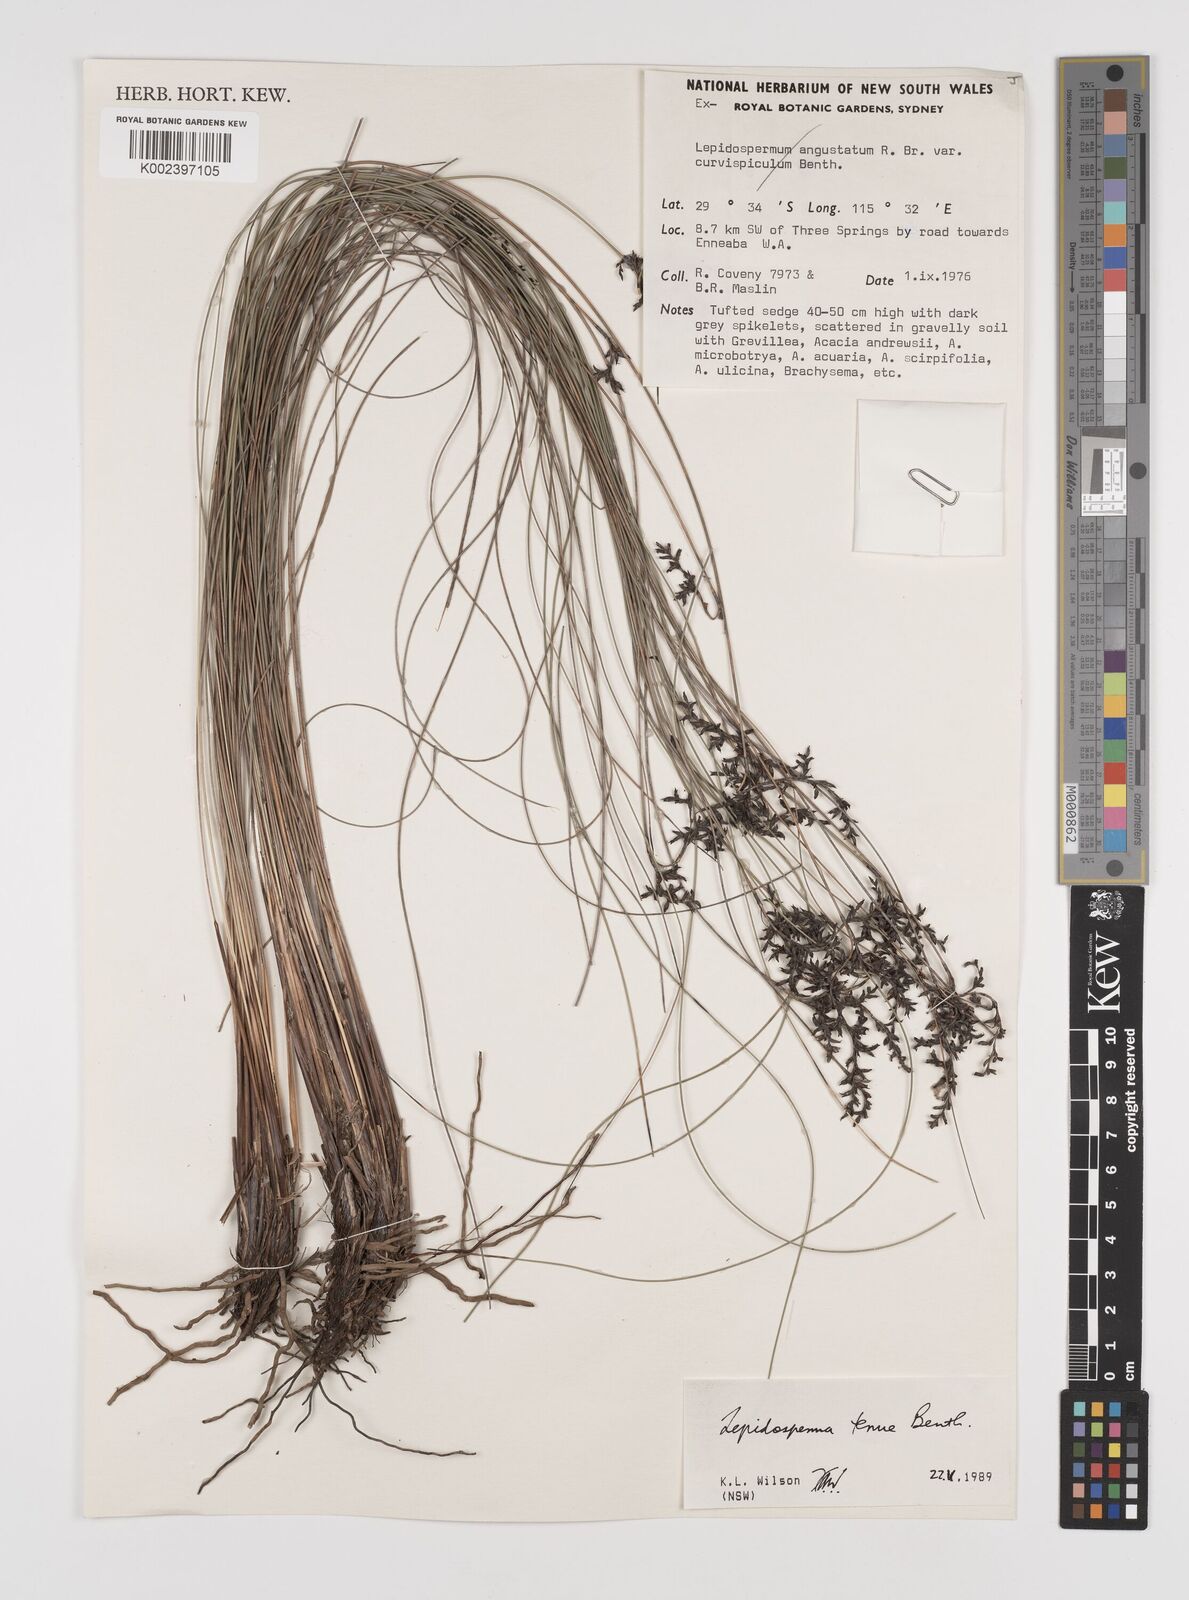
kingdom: Plantae
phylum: Tracheophyta
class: Liliopsida
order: Poales
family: Cyperaceae
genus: Lepidosperma
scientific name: Lepidosperma tenue
